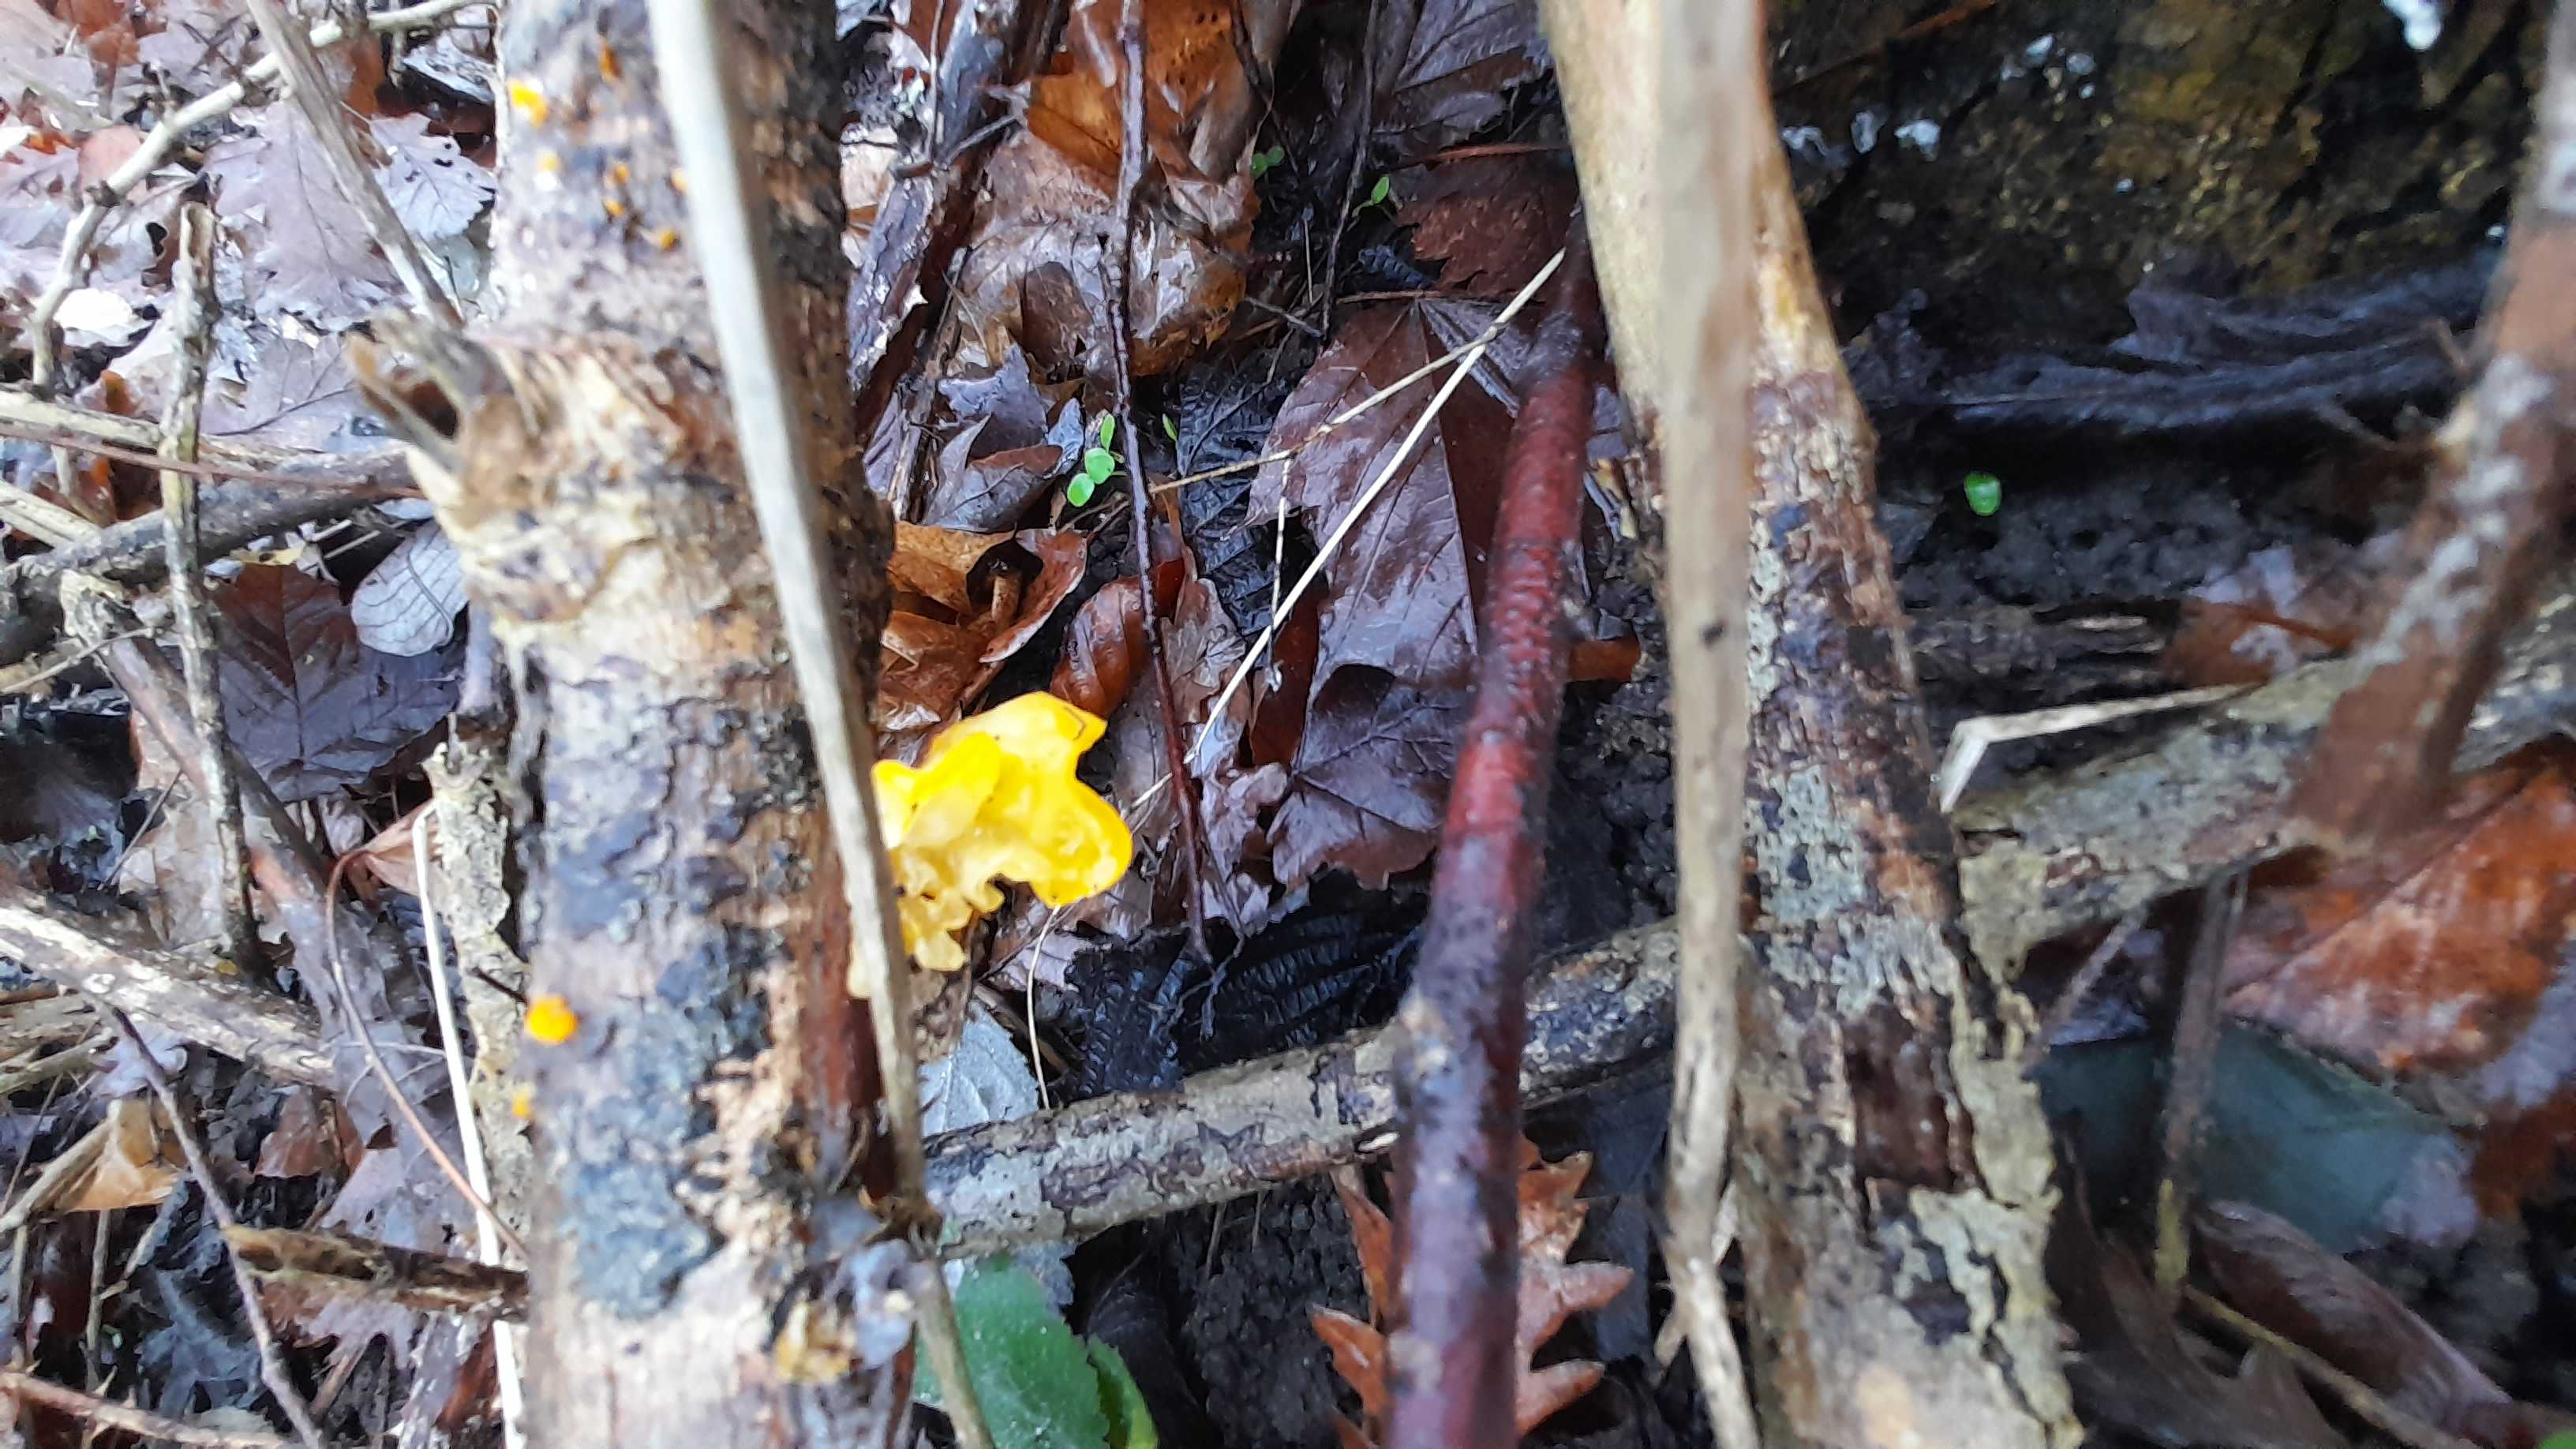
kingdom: Fungi
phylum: Basidiomycota
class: Tremellomycetes
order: Tremellales
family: Tremellaceae
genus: Tremella
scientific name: Tremella mesenterica
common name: gul bævresvamp
